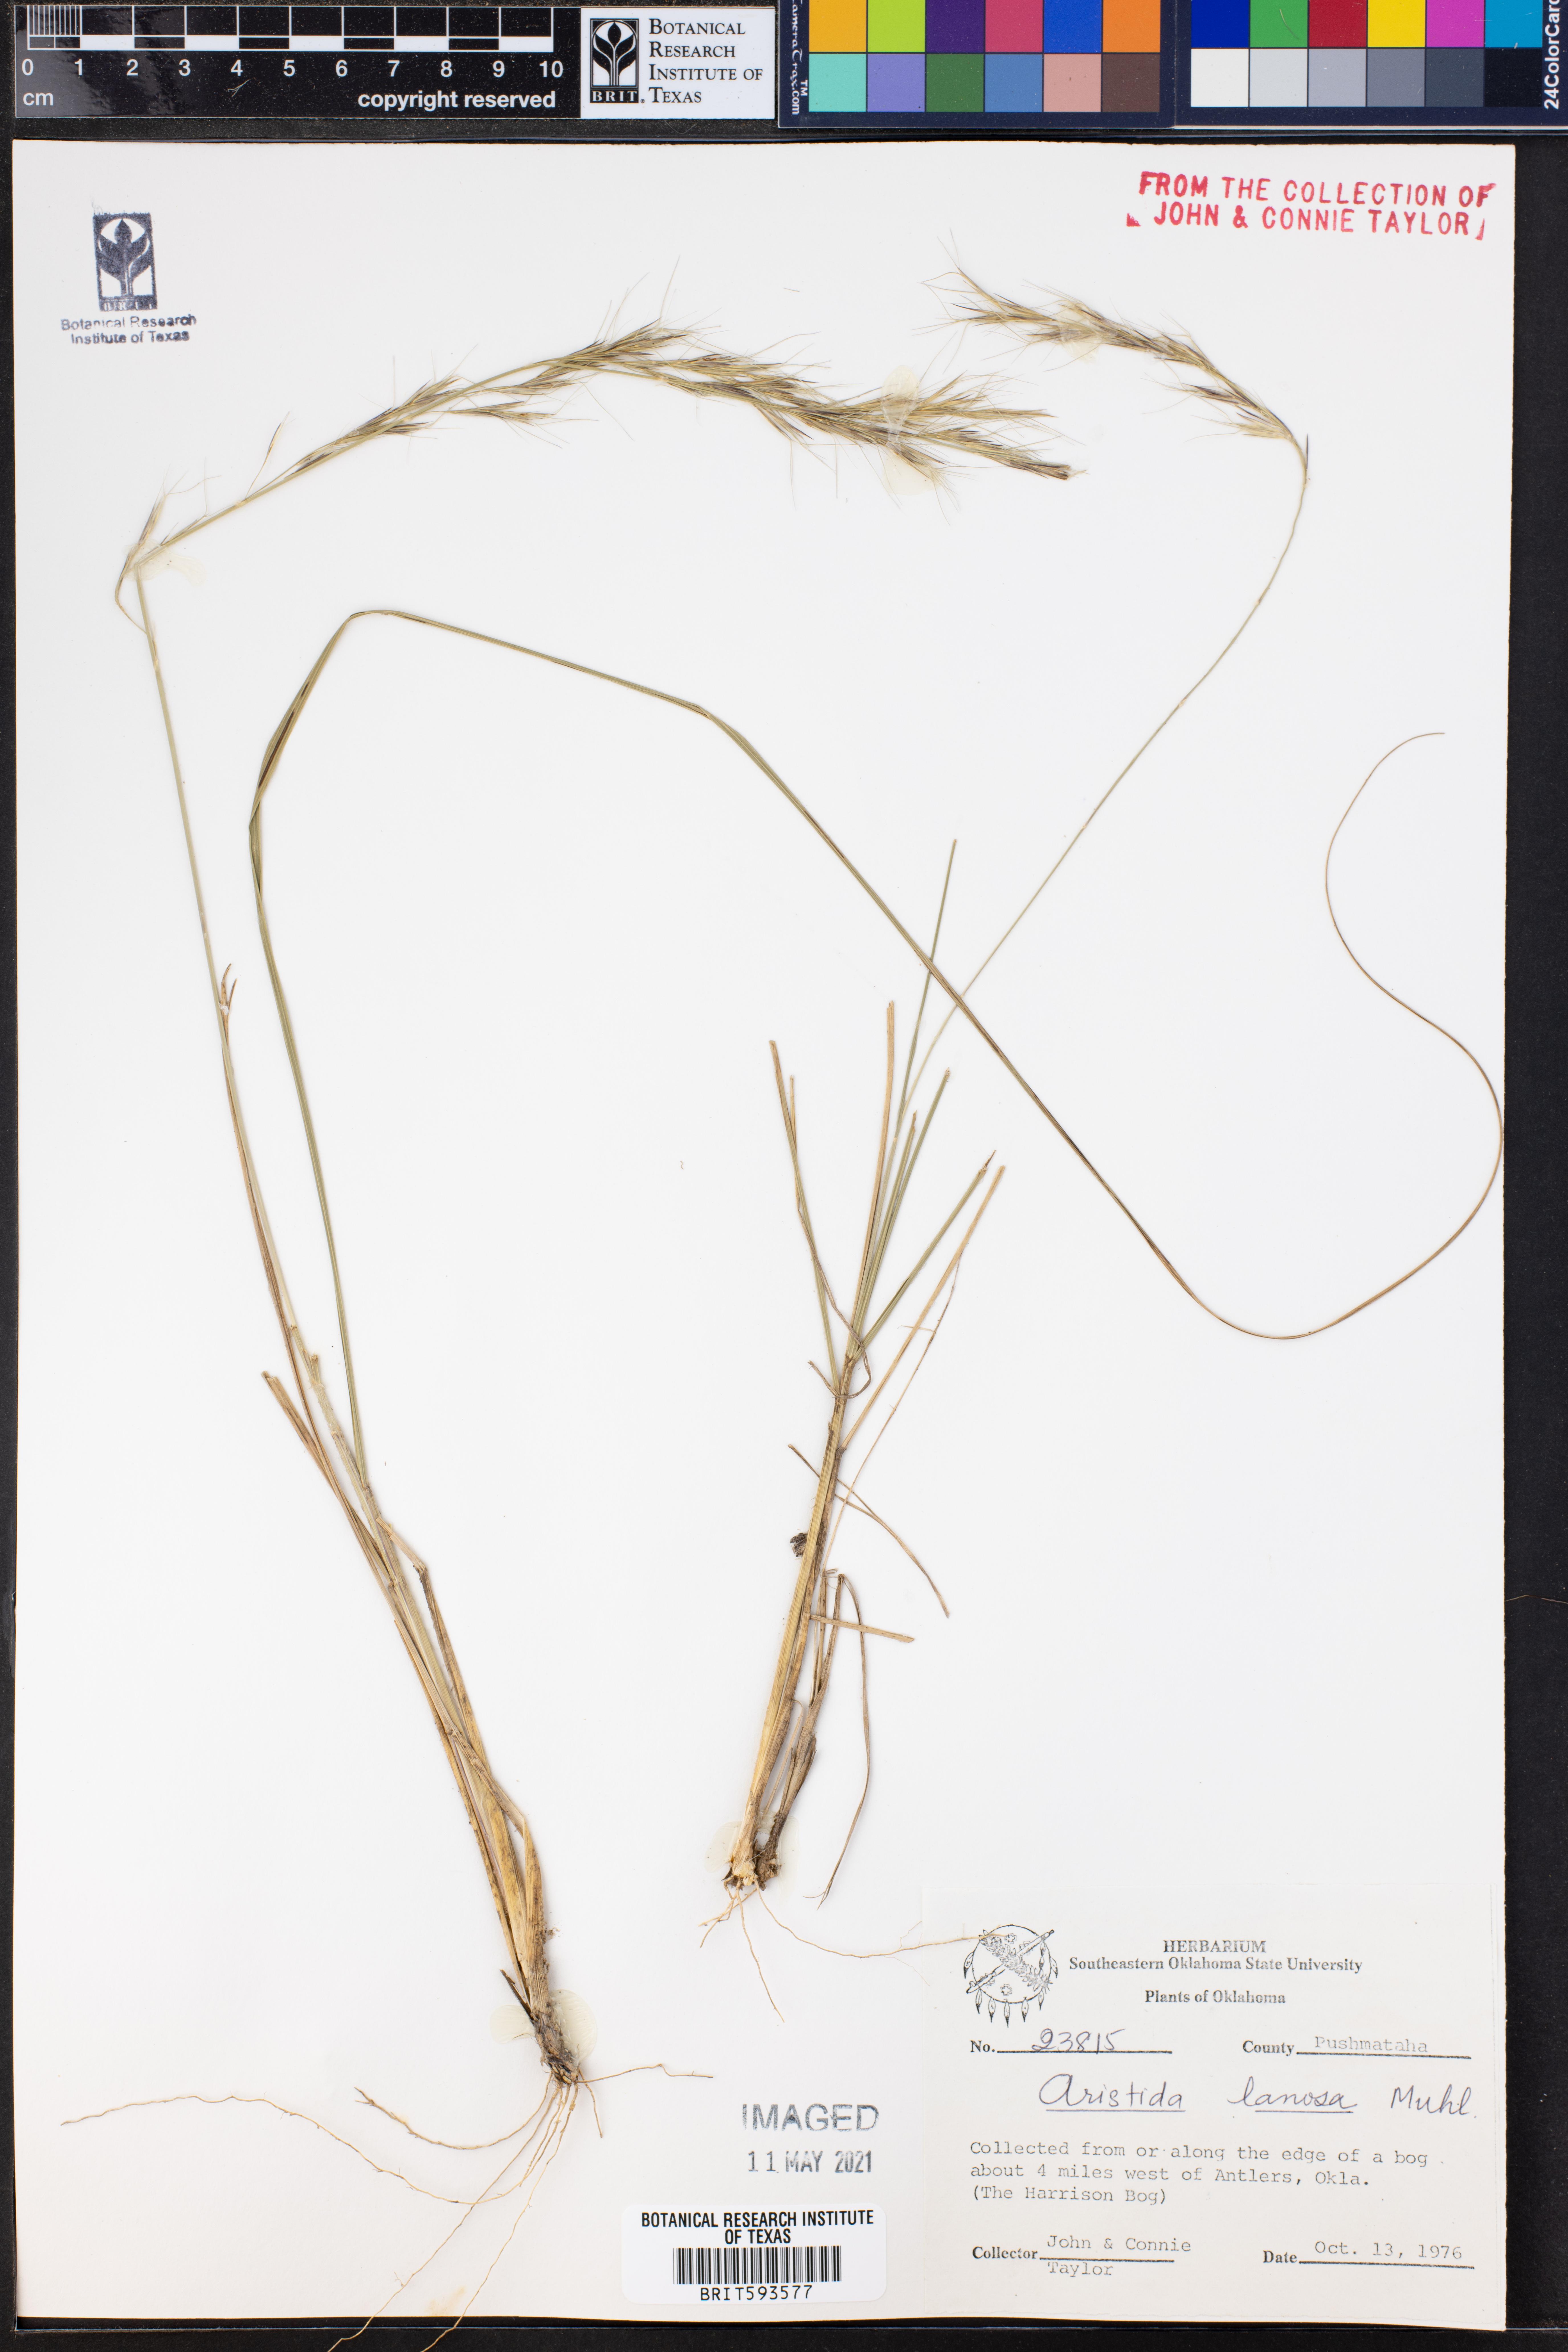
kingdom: Plantae
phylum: Tracheophyta
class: Liliopsida
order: Poales
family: Poaceae
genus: Aristida
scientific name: Aristida lanosa
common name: Woolly three-awn
